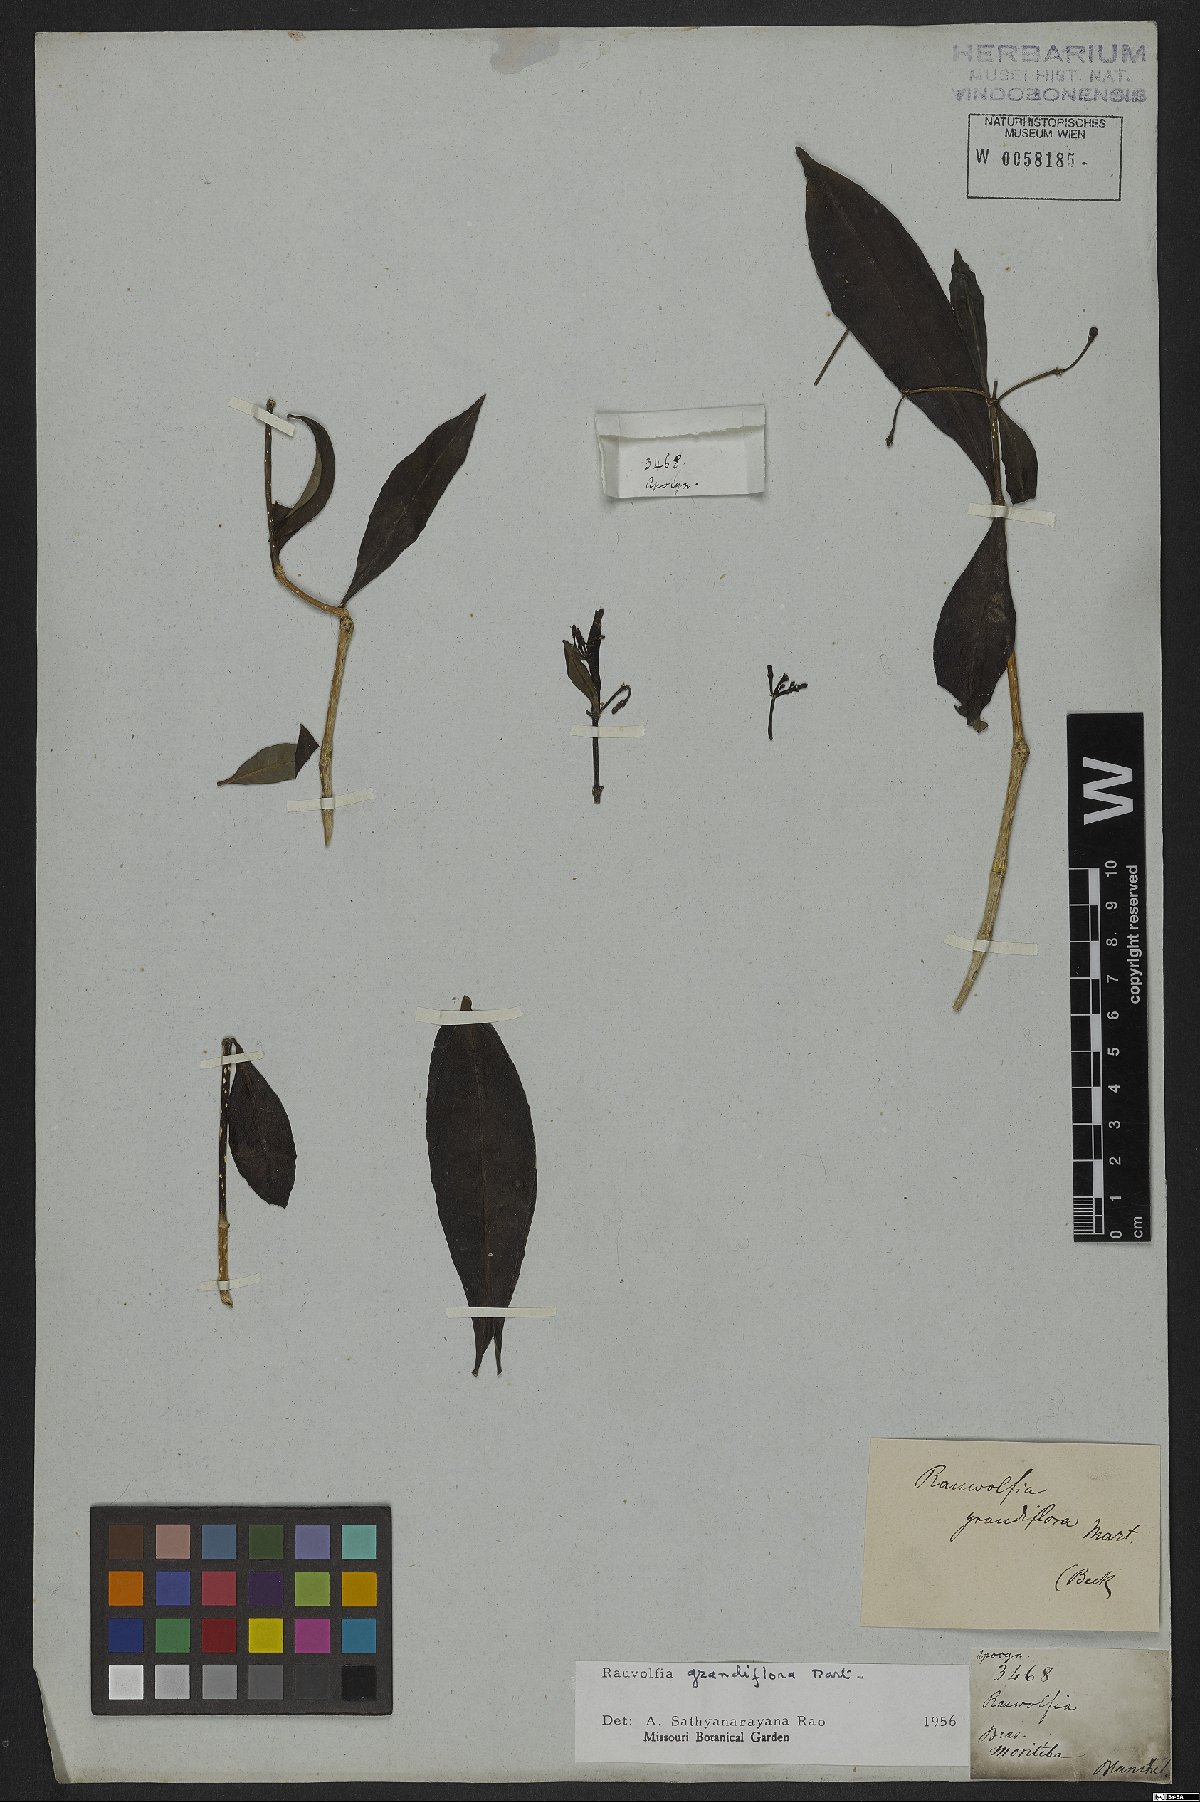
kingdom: Plantae
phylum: Tracheophyta
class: Magnoliopsida
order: Gentianales
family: Apocynaceae
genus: Rauvolfia
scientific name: Rauvolfia grandiflora
